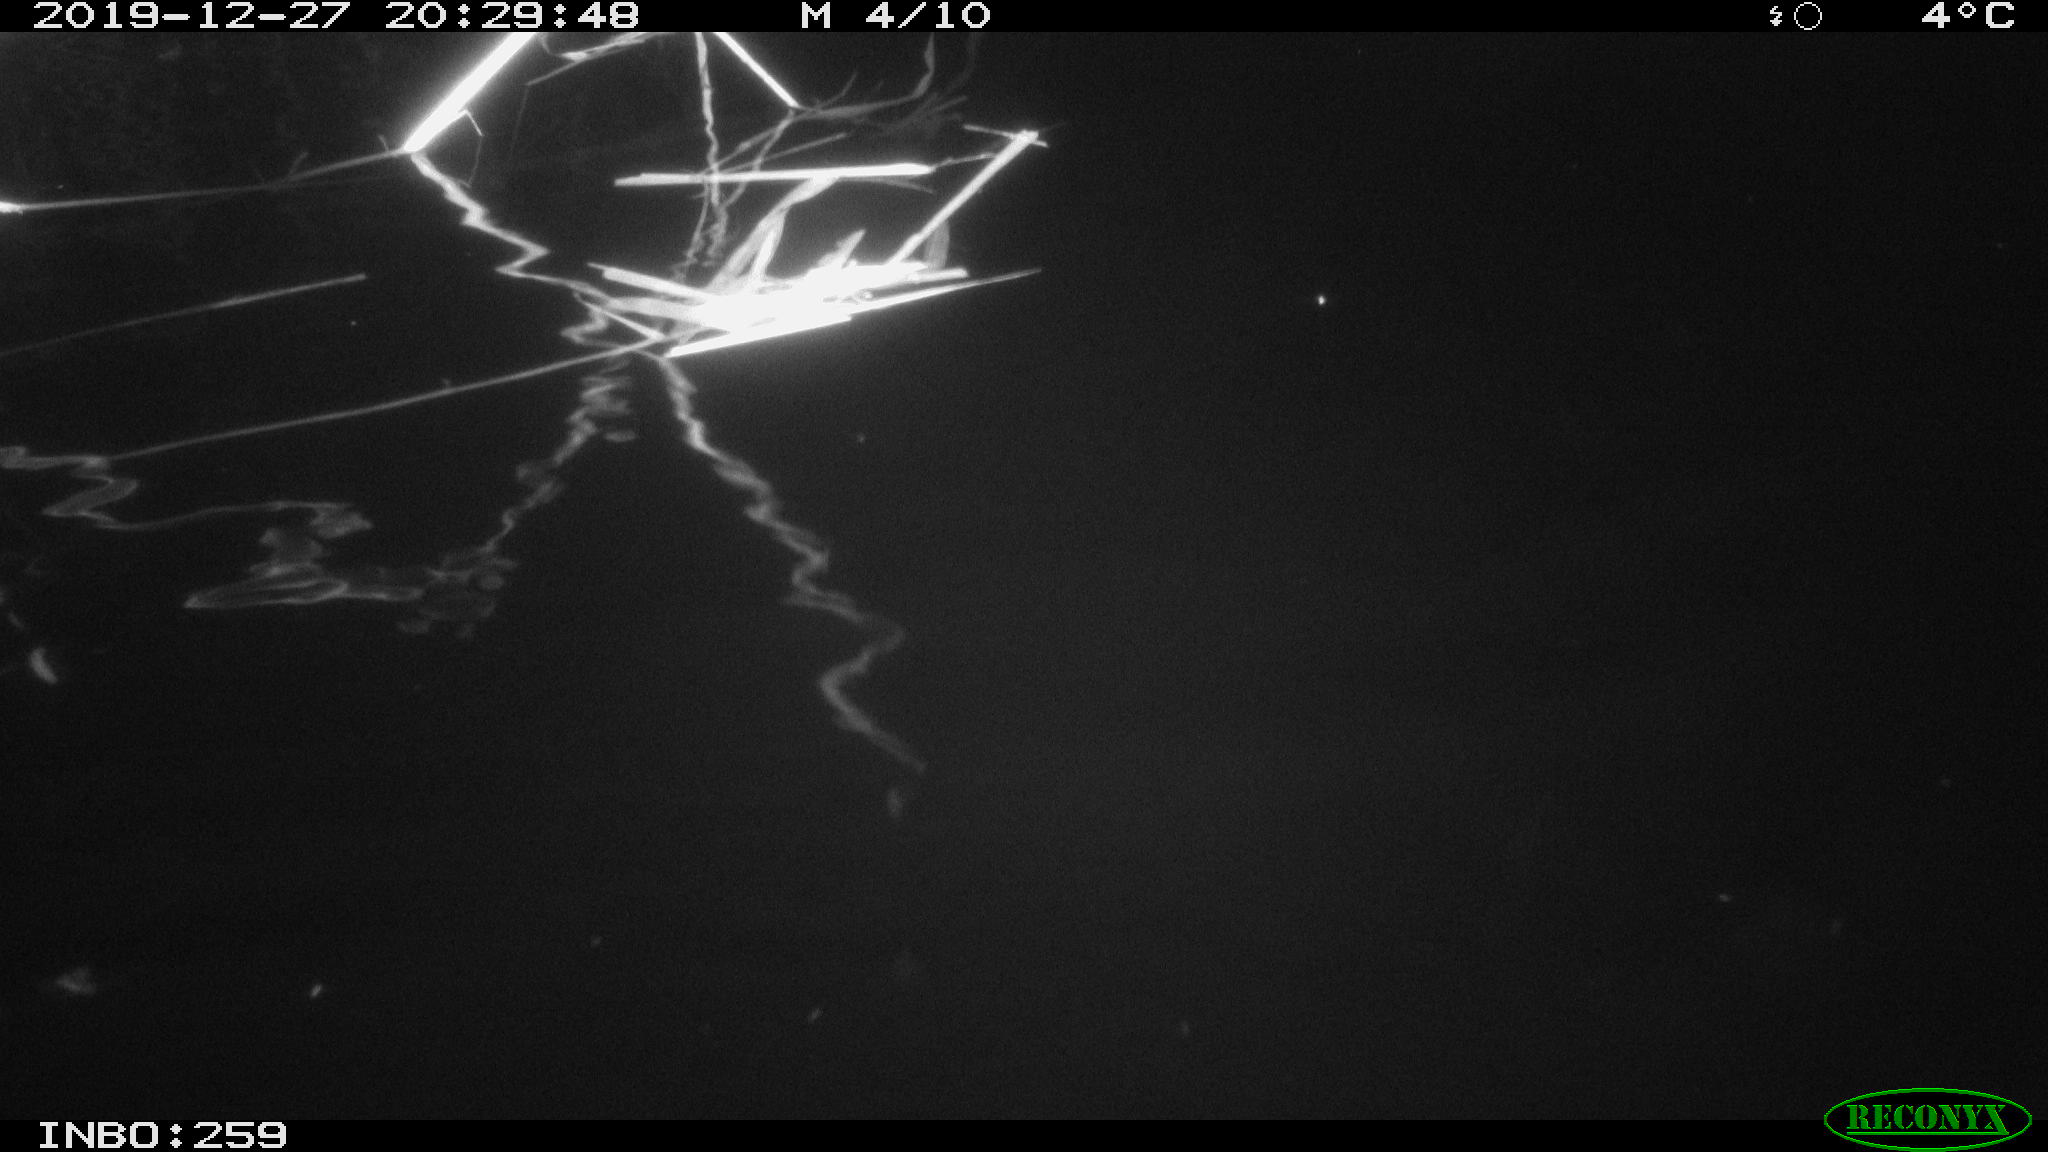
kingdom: Animalia
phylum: Chordata
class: Mammalia
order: Rodentia
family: Cricetidae
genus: Ondatra
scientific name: Ondatra zibethicus
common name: Muskrat
